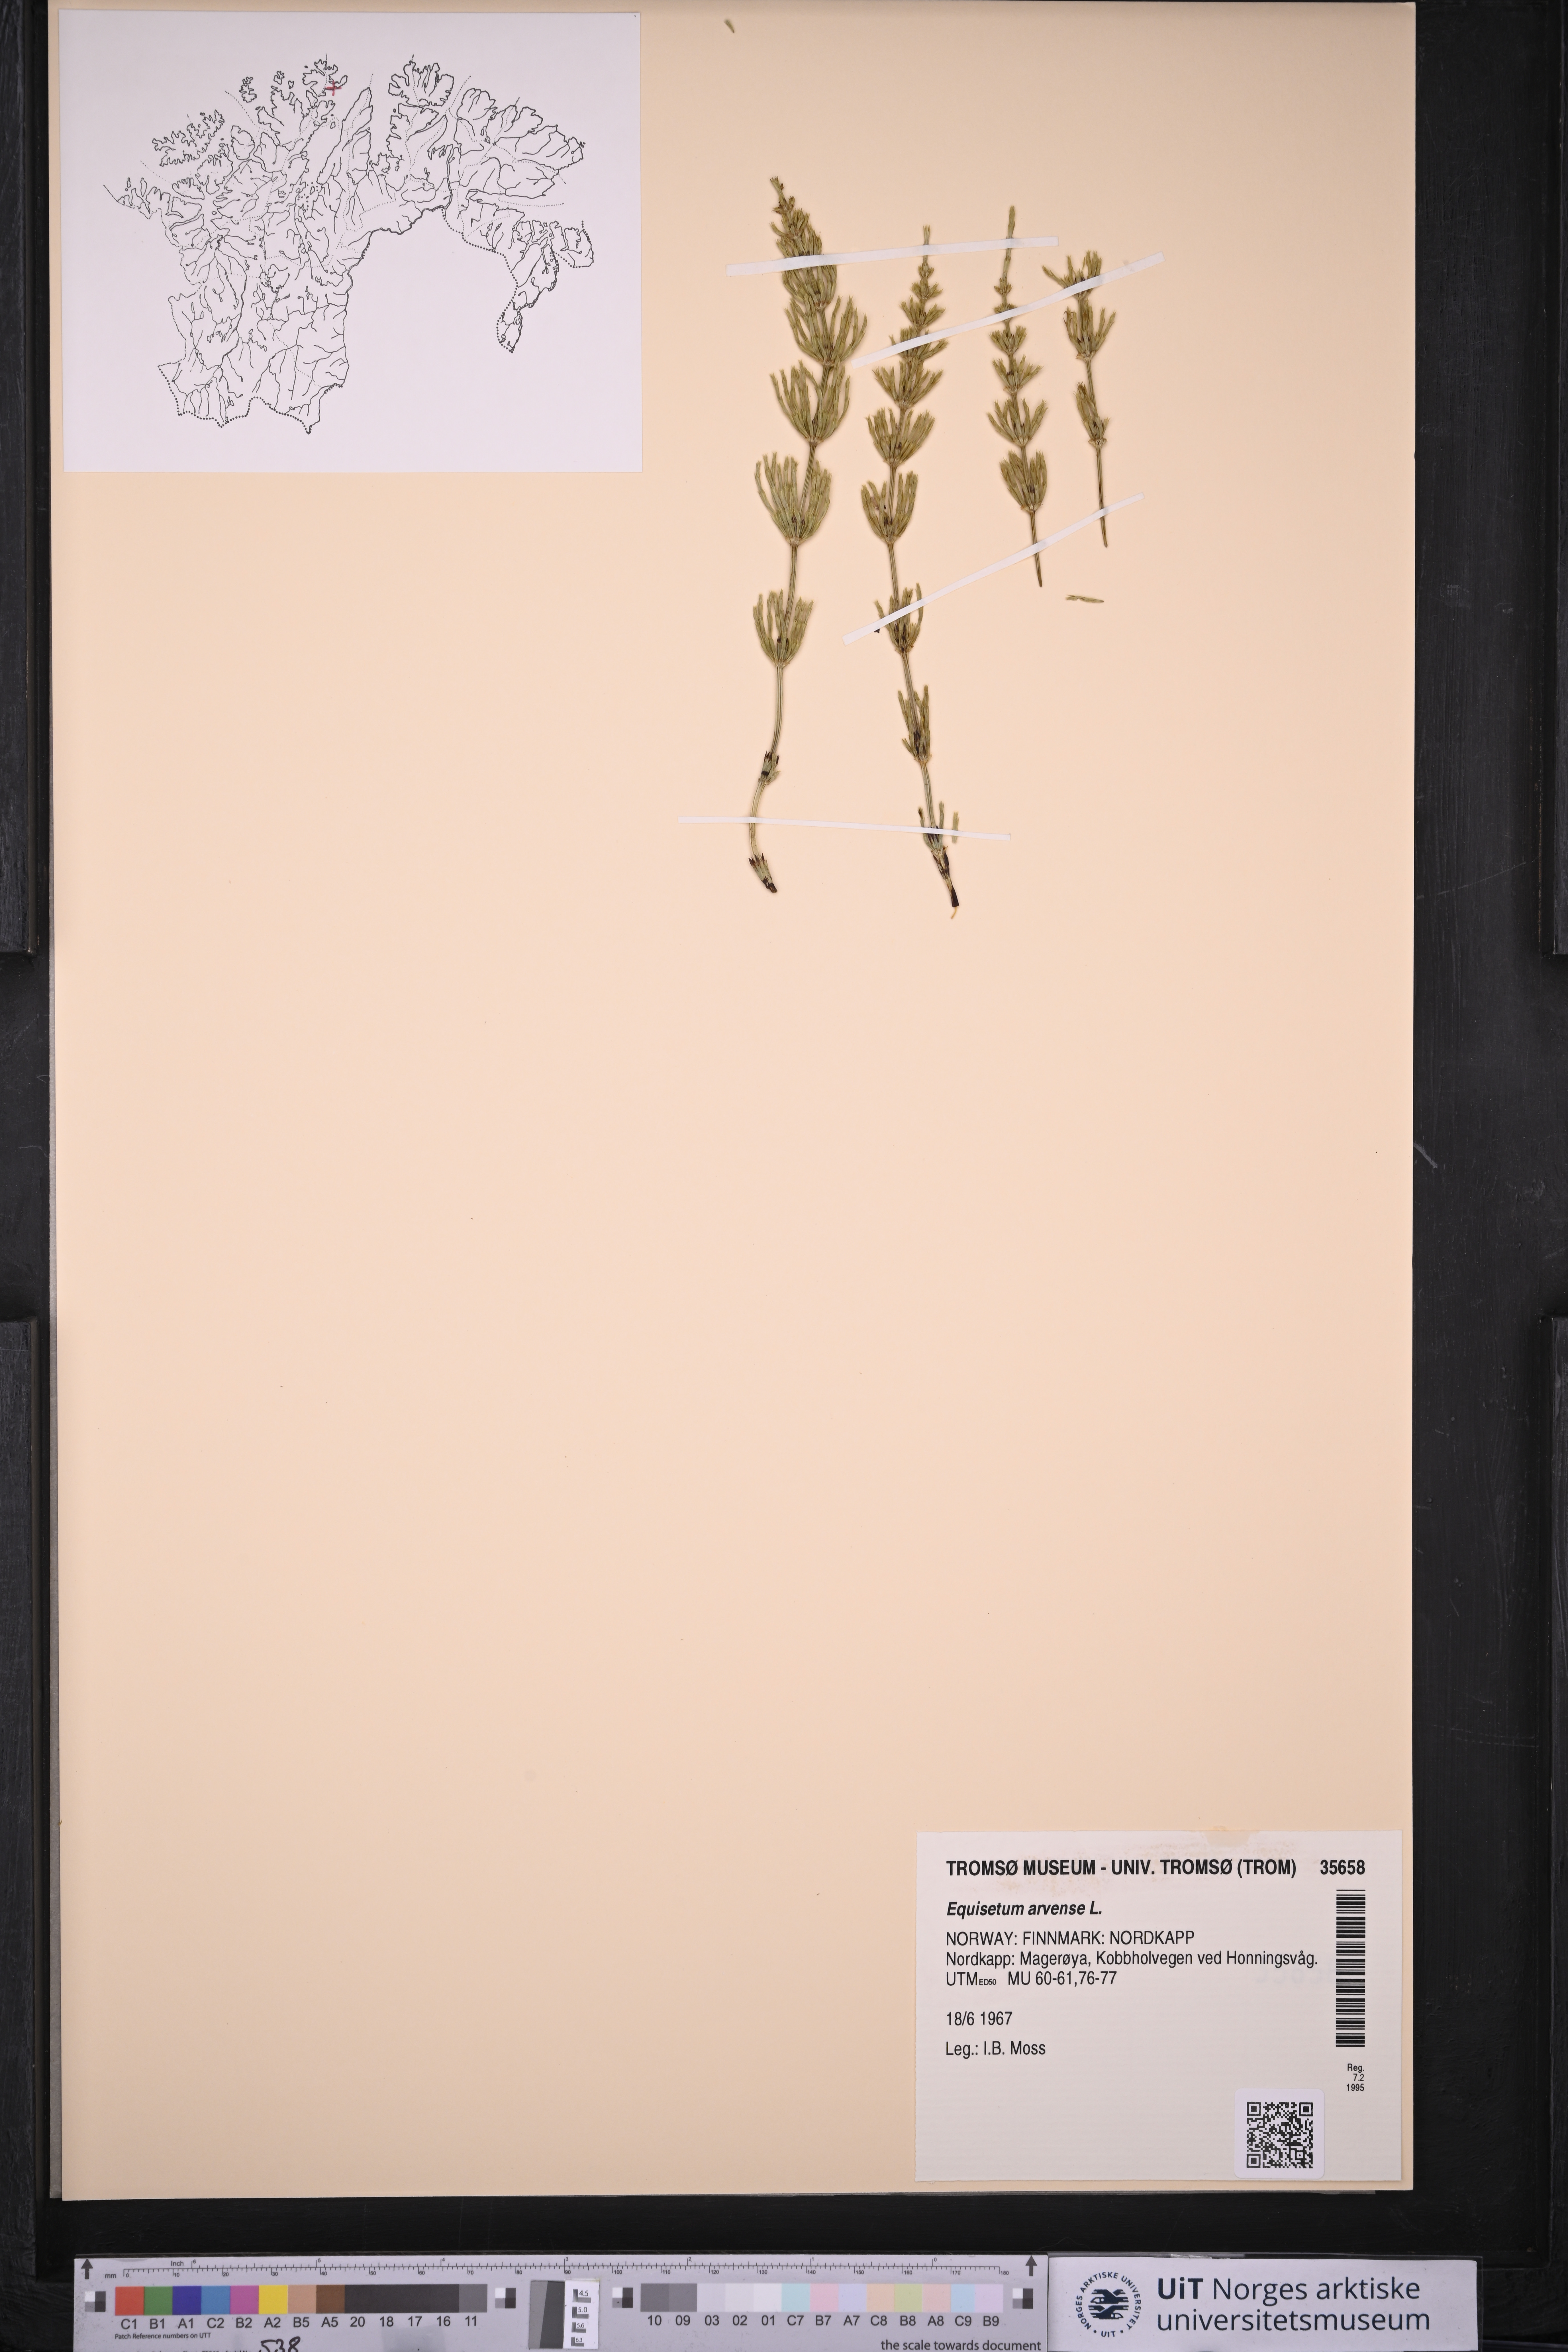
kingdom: Plantae
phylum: Tracheophyta
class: Polypodiopsida
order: Equisetales
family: Equisetaceae
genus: Equisetum
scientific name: Equisetum arvense
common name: Field horsetail
